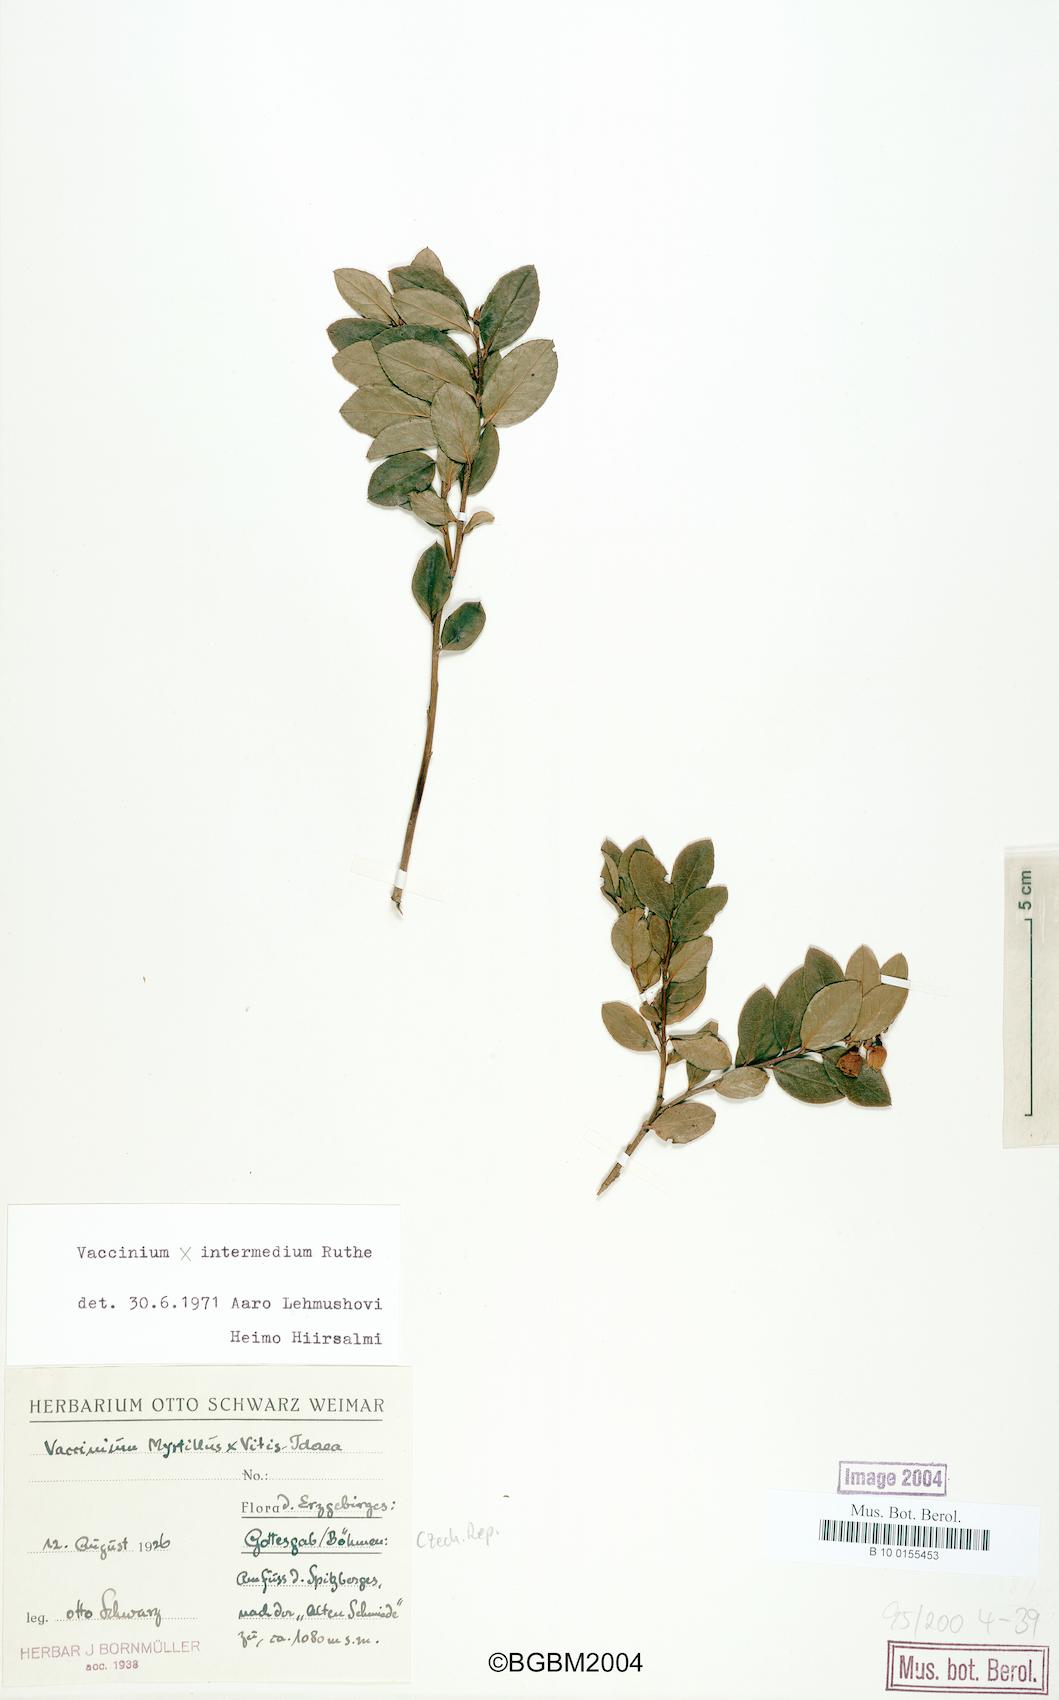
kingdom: Plantae
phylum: Tracheophyta
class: Magnoliopsida
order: Ericales
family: Ericaceae
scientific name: Ericaceae
